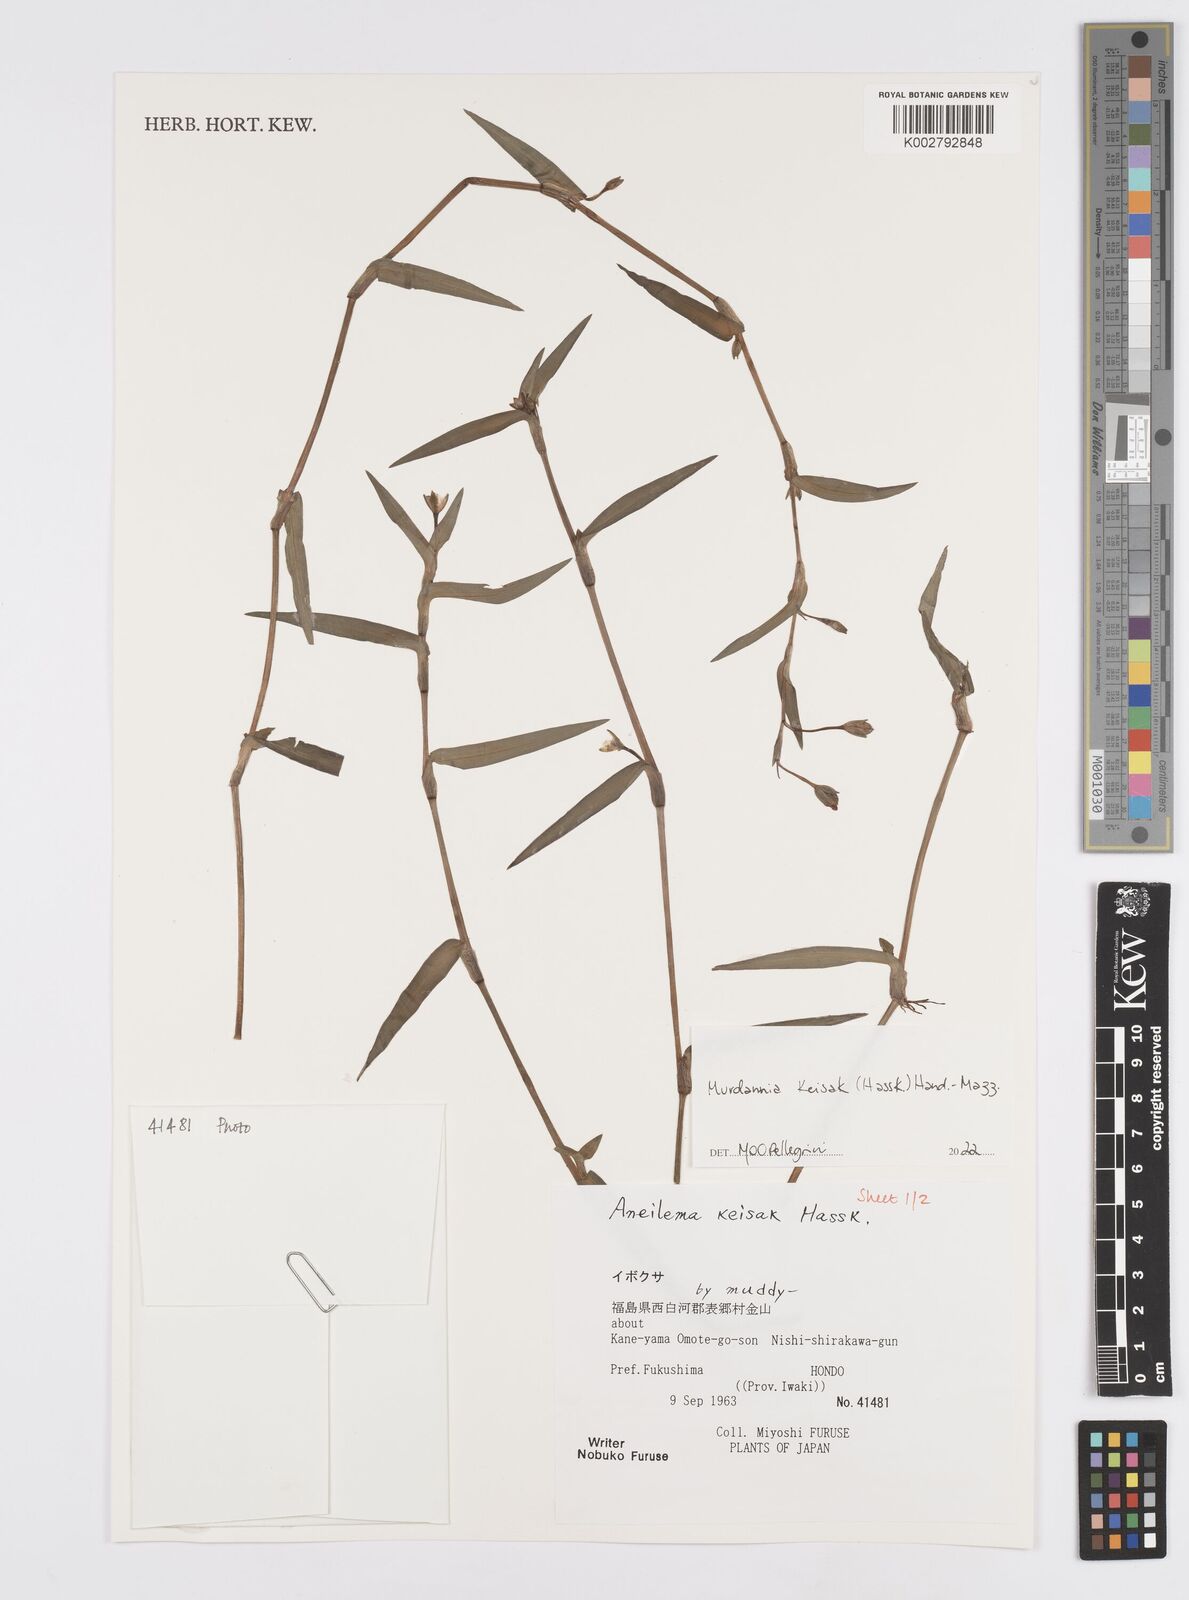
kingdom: Plantae
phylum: Tracheophyta
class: Liliopsida
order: Commelinales
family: Commelinaceae
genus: Murdannia
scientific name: Murdannia keisak
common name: Wartremoving herb
